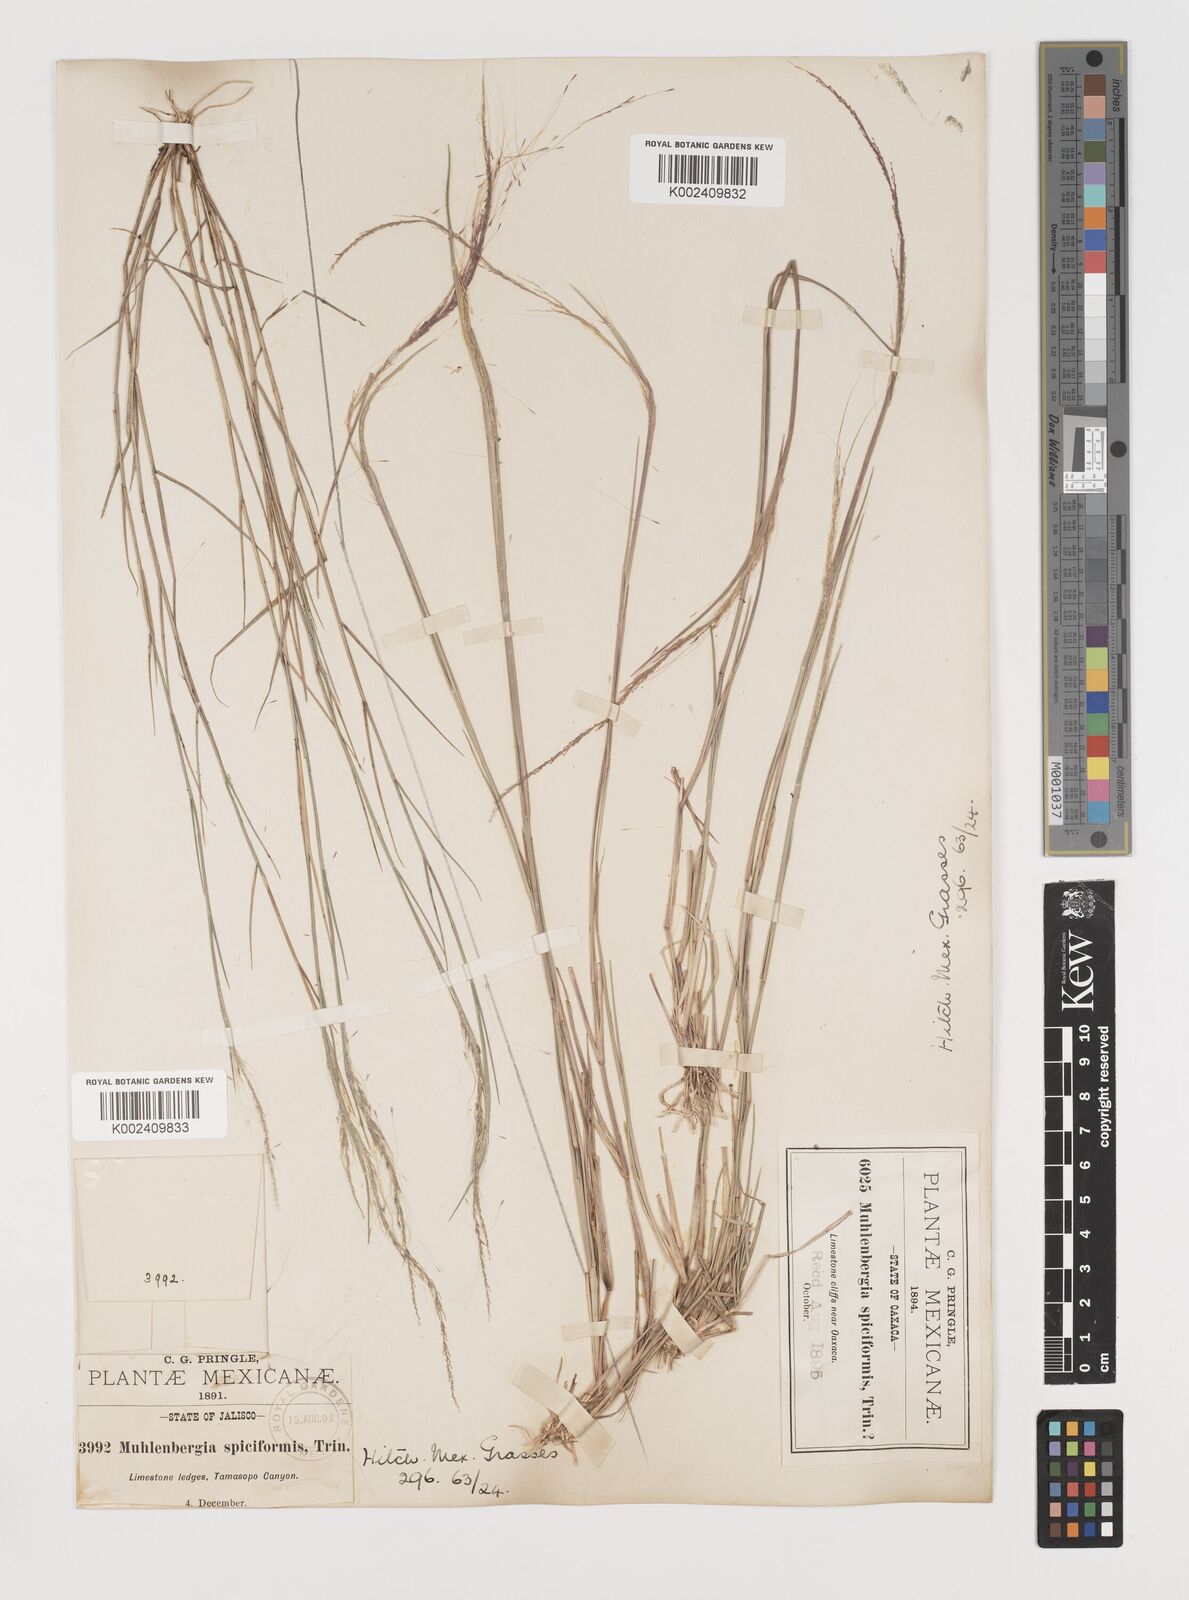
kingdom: Plantae
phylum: Tracheophyta
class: Liliopsida
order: Poales
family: Poaceae
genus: Muhlenbergia
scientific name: Muhlenbergia spiciformis
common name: Longawn muhly
